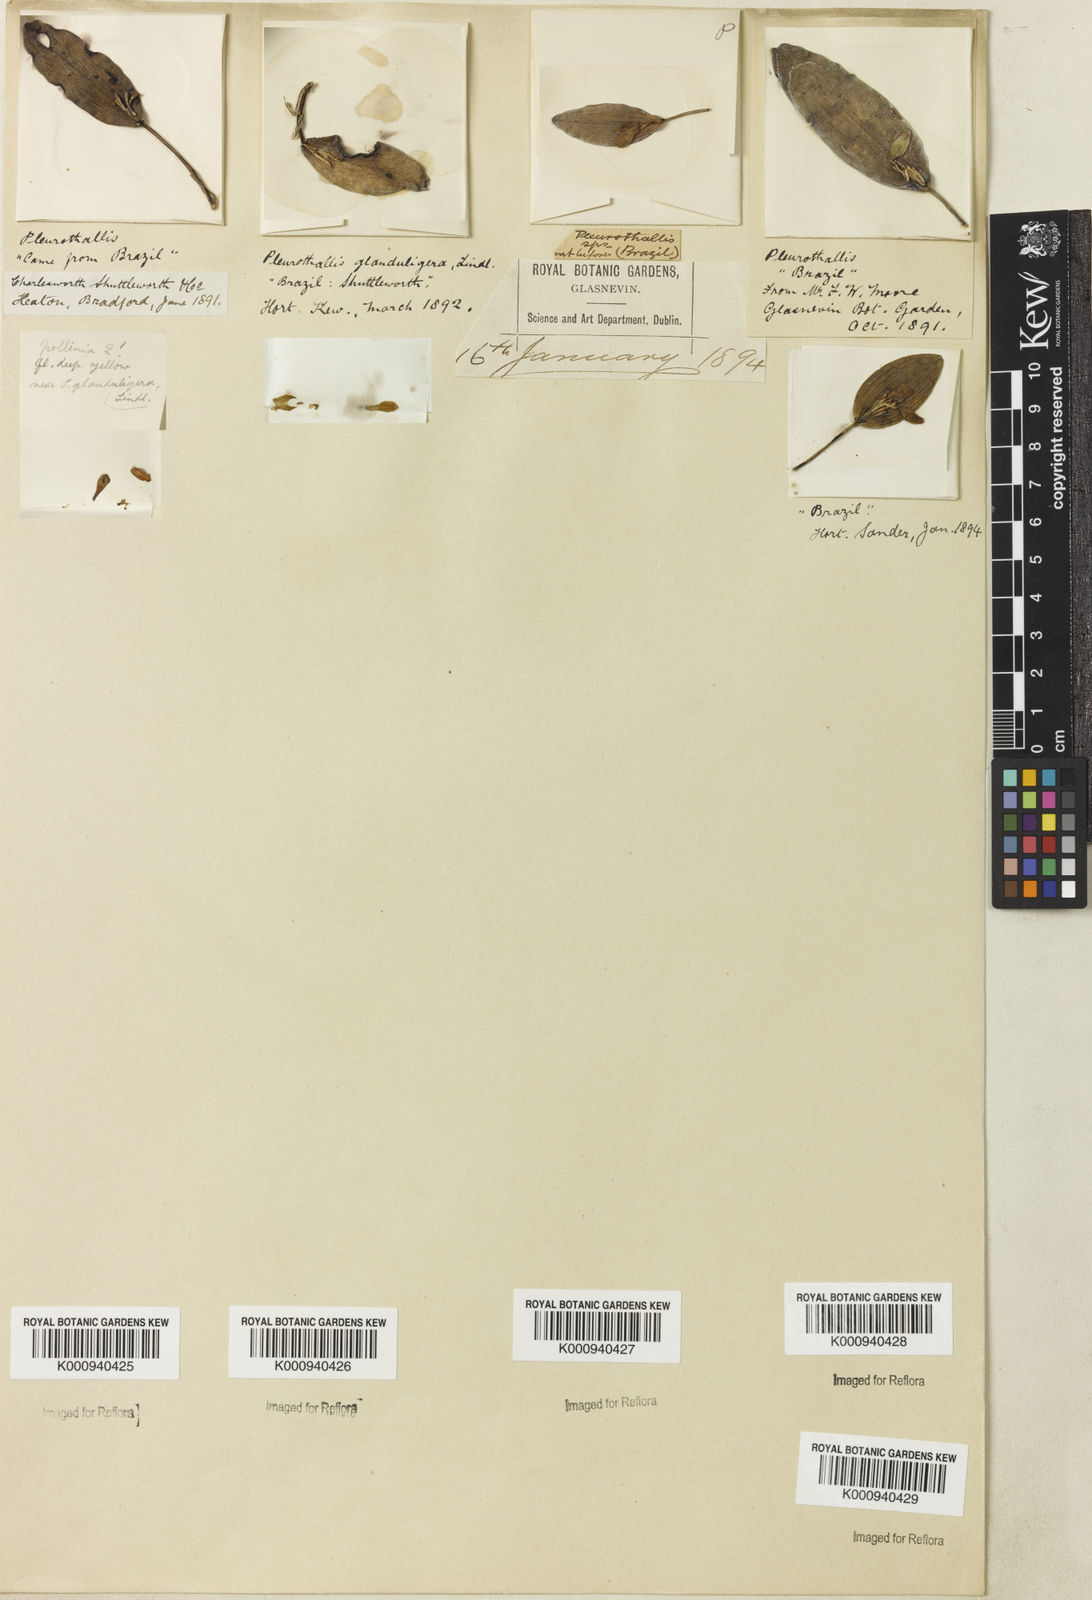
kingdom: Plantae
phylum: Tracheophyta
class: Liliopsida
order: Asparagales
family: Orchidaceae
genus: Acianthera
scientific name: Acianthera glanduligera
